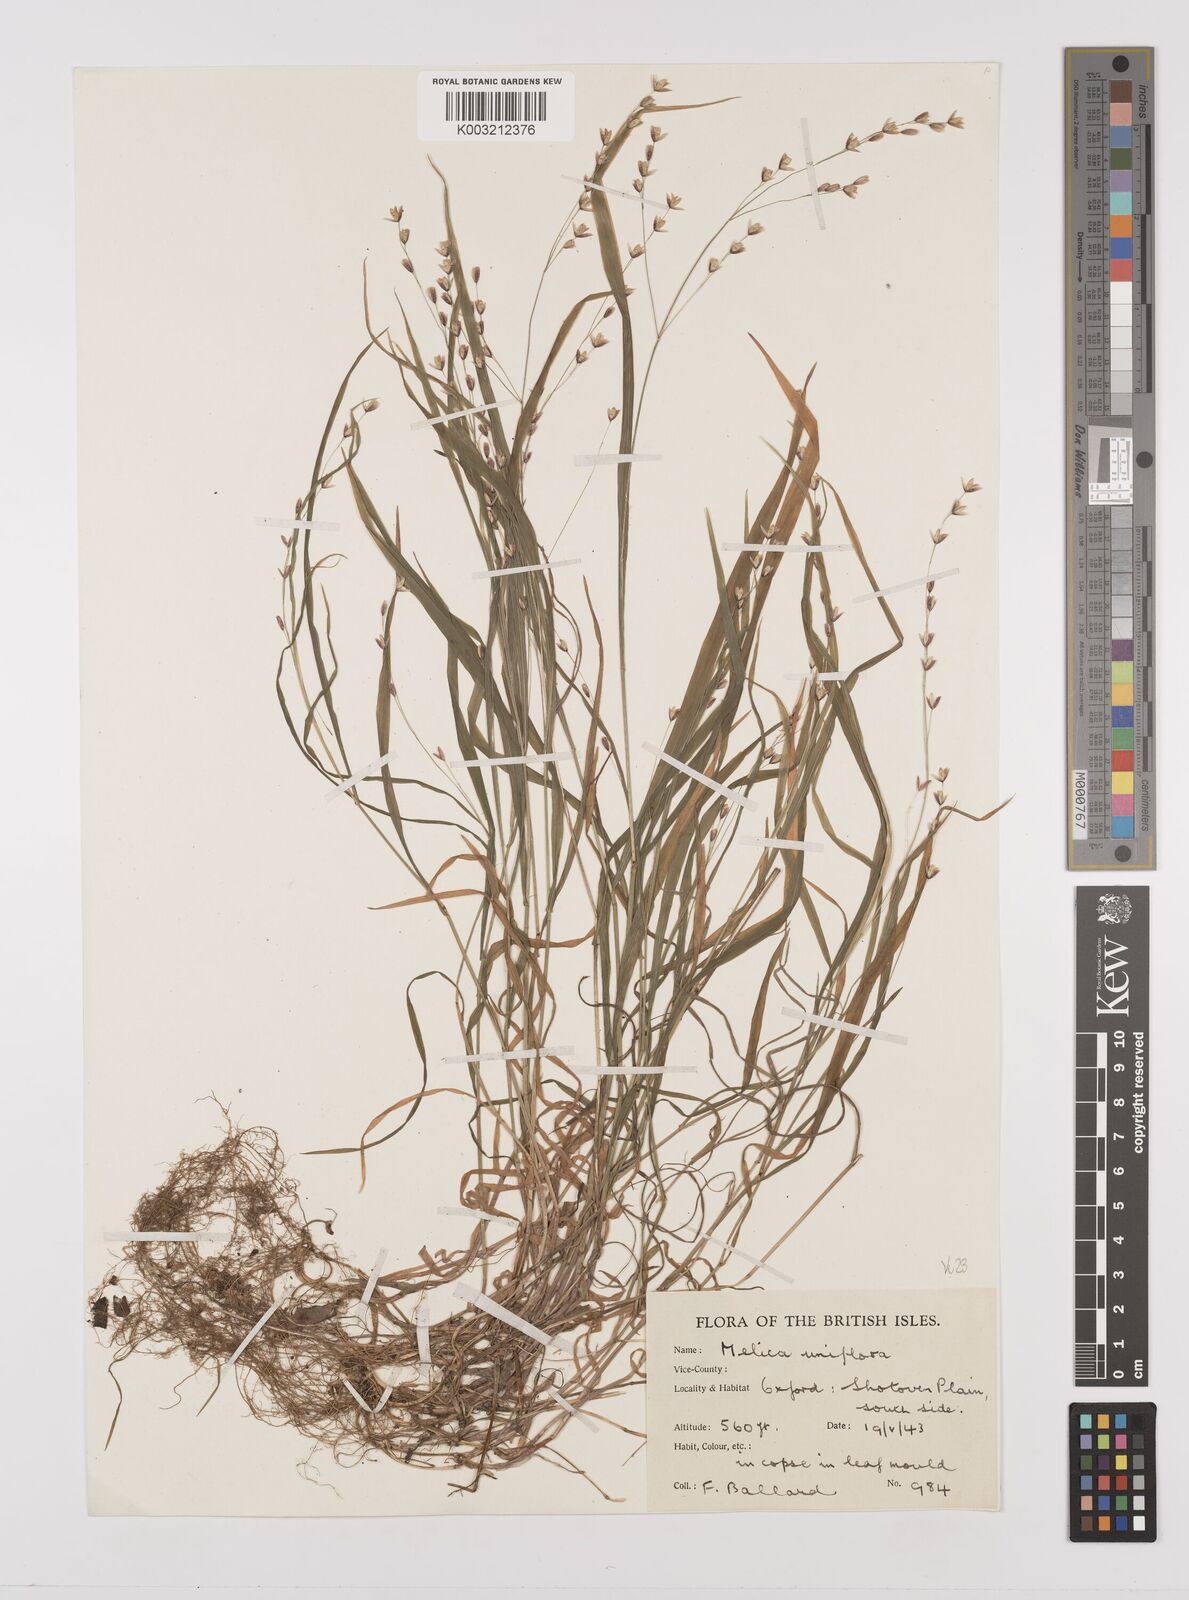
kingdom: Plantae
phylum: Tracheophyta
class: Liliopsida
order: Poales
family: Poaceae
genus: Melica
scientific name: Melica uniflora
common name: Wood melick
